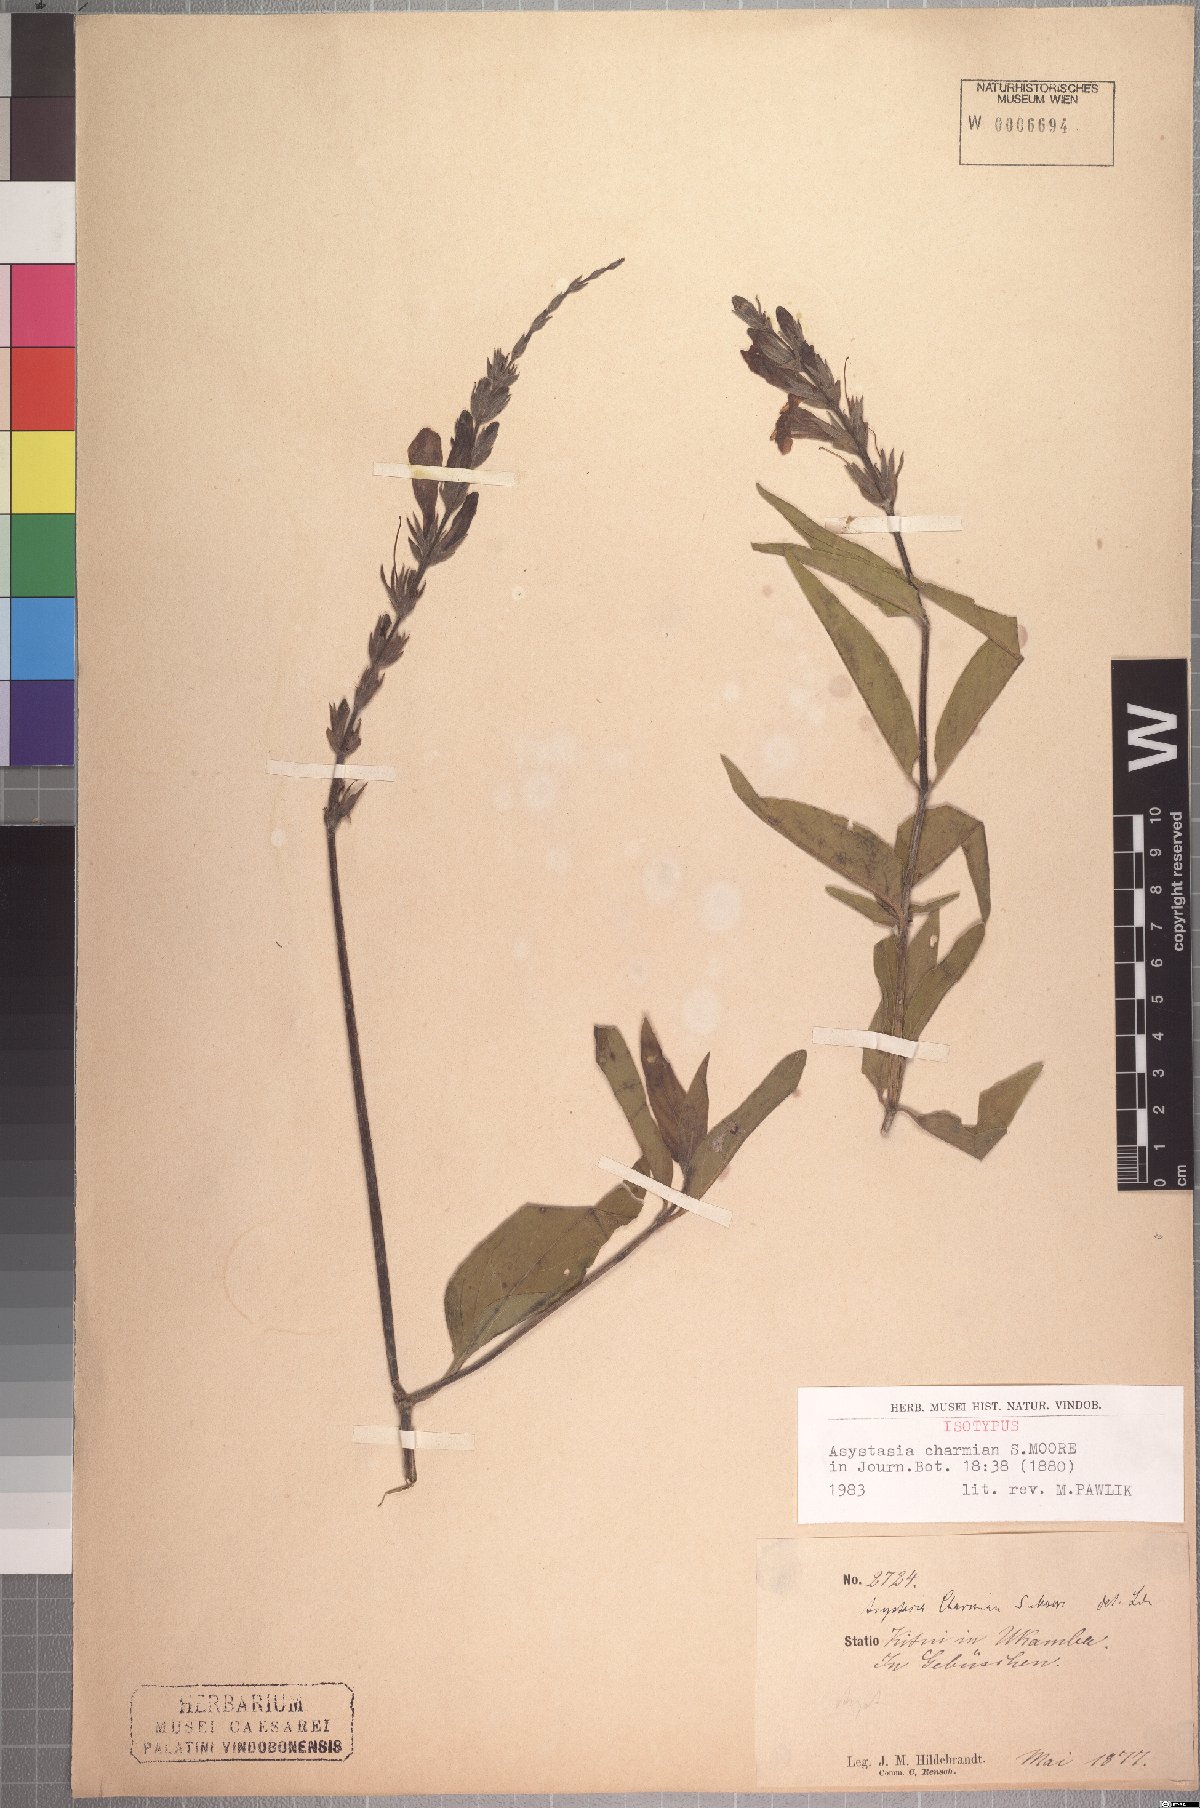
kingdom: Plantae
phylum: Tracheophyta
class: Magnoliopsida
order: Lamiales
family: Acanthaceae
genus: Asystasia
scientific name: Asystasia charmian
